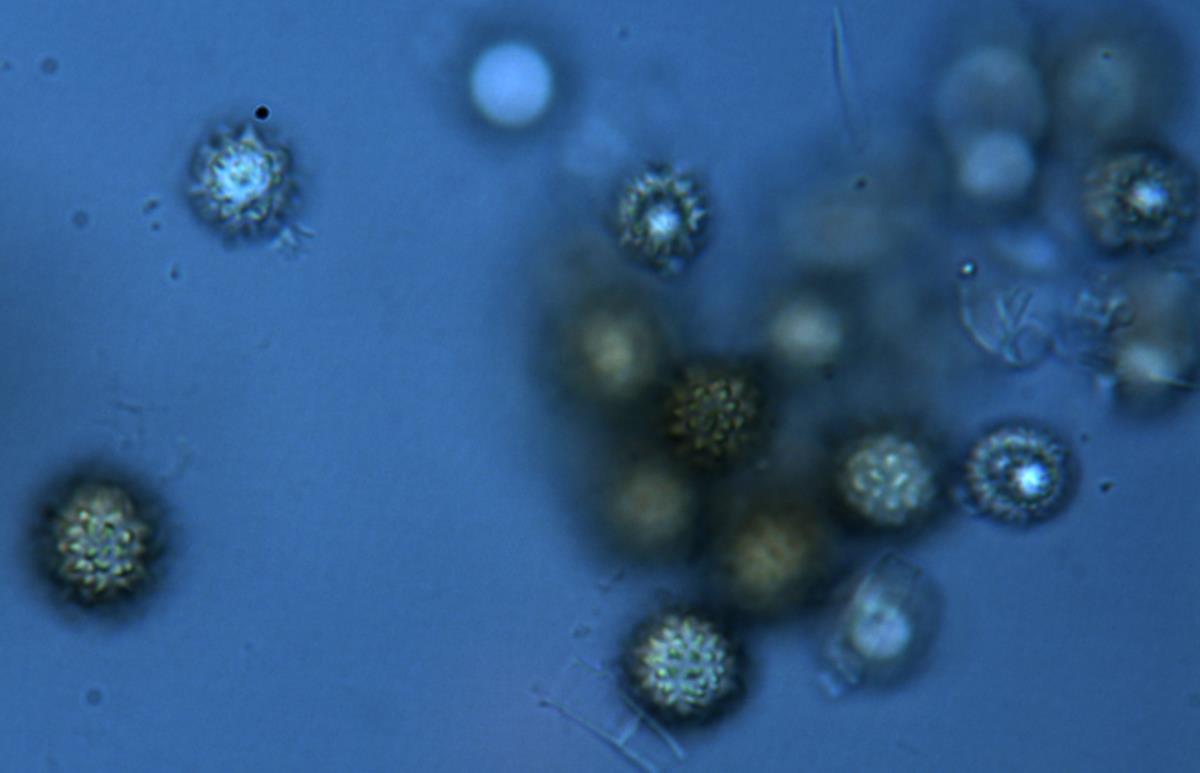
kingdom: Fungi
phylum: Basidiomycota
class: Agaricomycetes
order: Boletales
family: Sclerodermataceae
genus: Pisolithus
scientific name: Pisolithus albus
